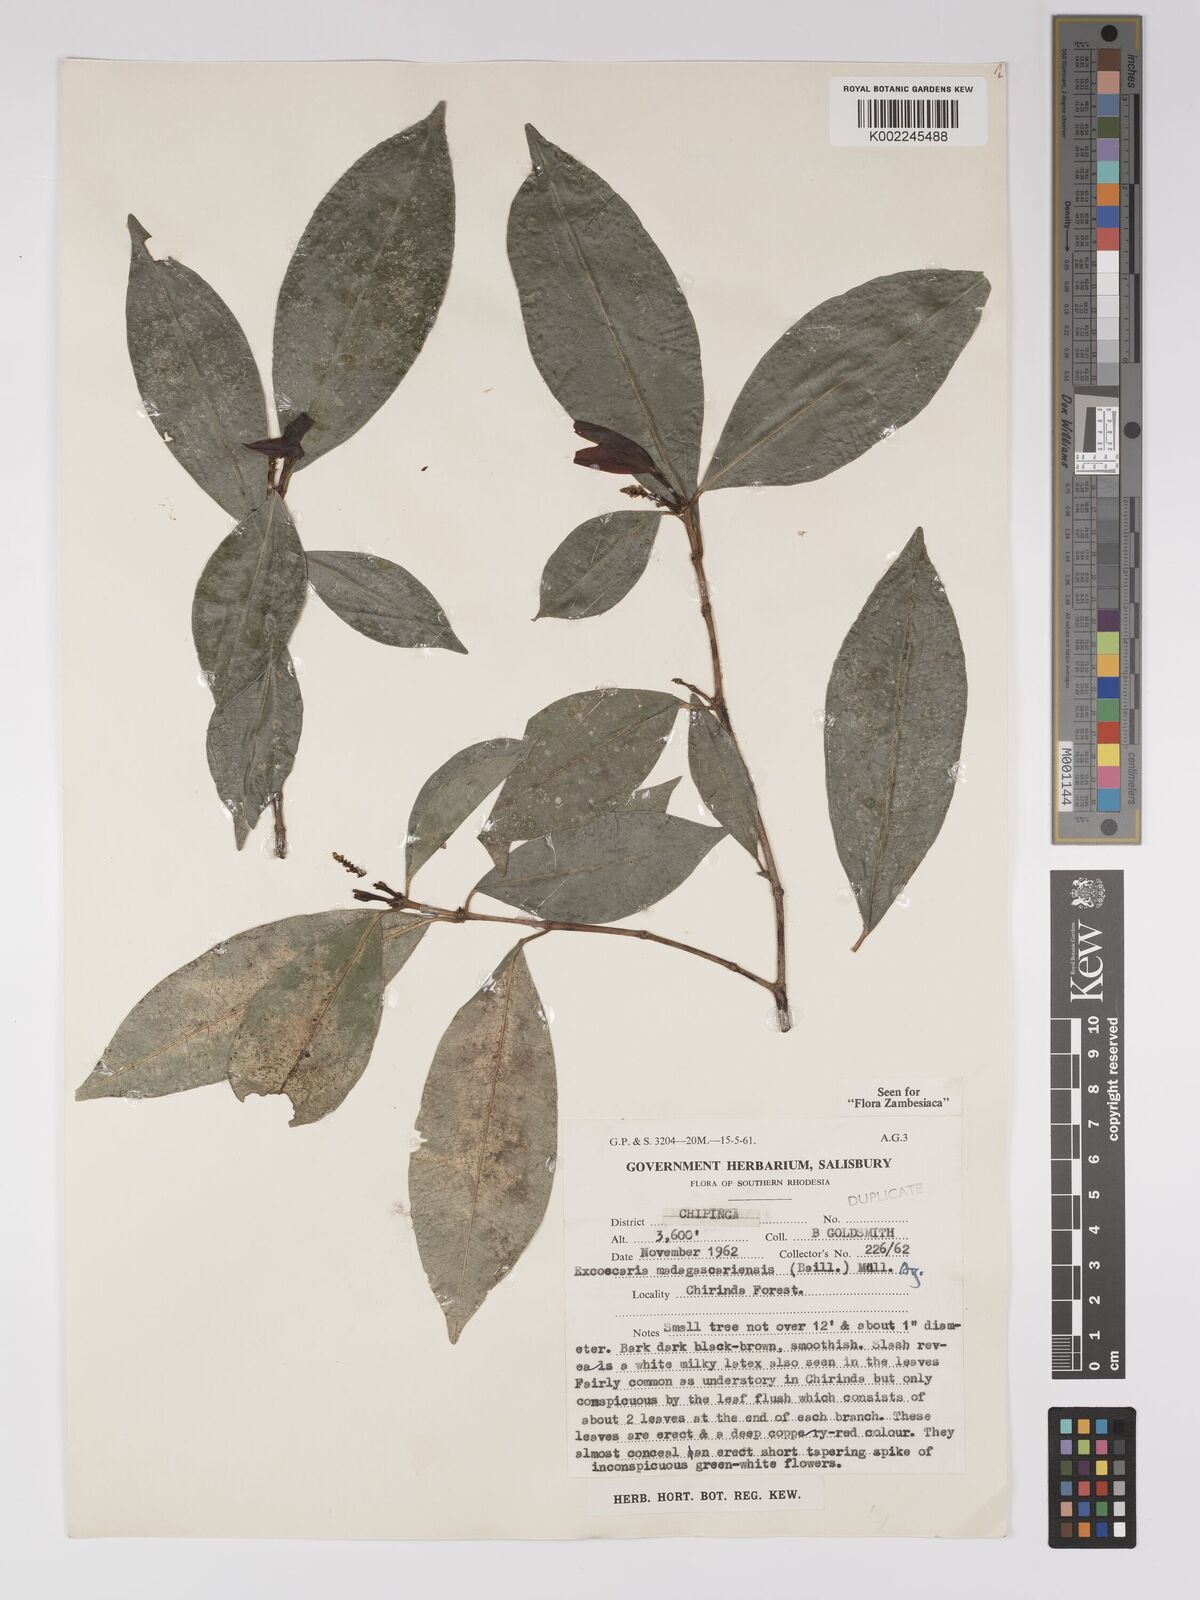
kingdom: Plantae
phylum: Tracheophyta
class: Magnoliopsida
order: Malpighiales
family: Euphorbiaceae
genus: Excoecaria
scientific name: Excoecaria madagascariensis
